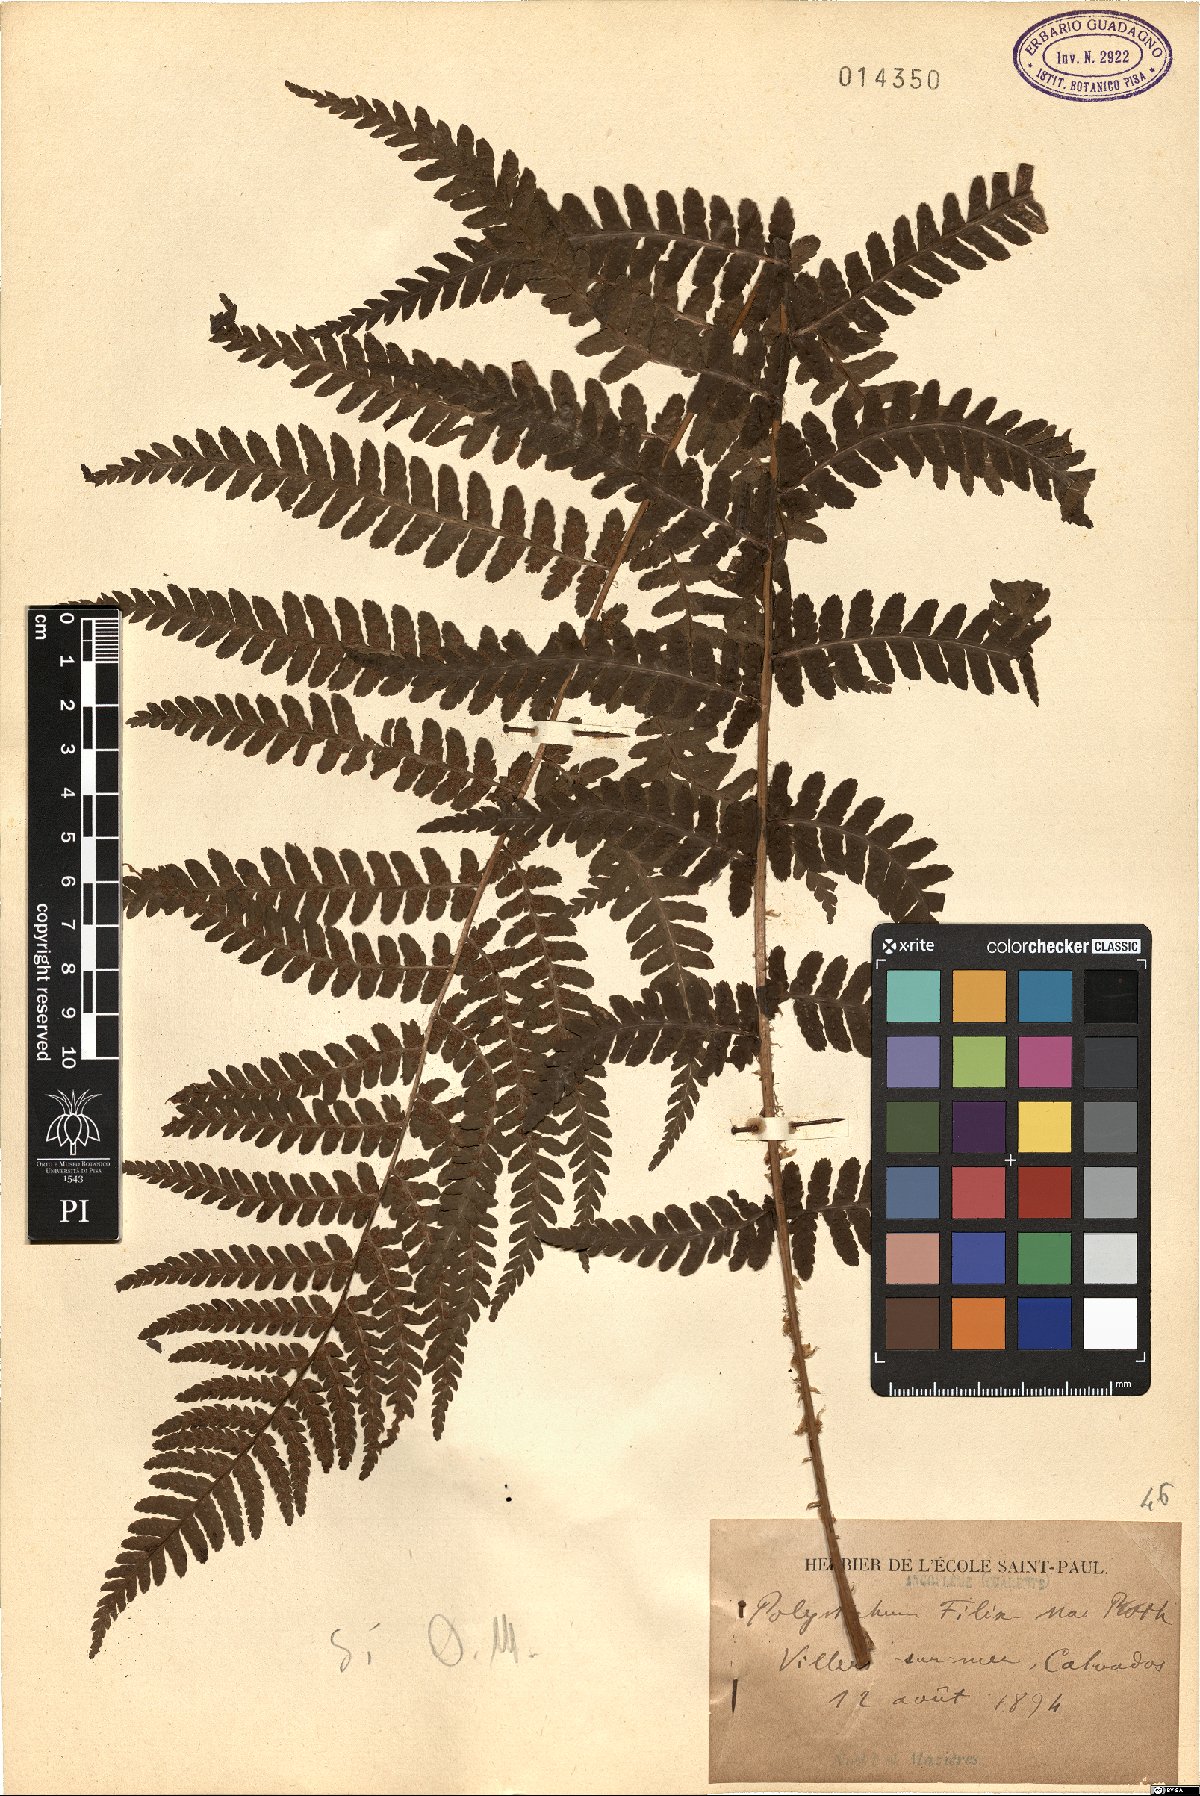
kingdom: Plantae
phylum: Tracheophyta
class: Polypodiopsida
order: Polypodiales
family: Dryopteridaceae
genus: Dryopteris
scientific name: Dryopteris filix-mas
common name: Male fern
